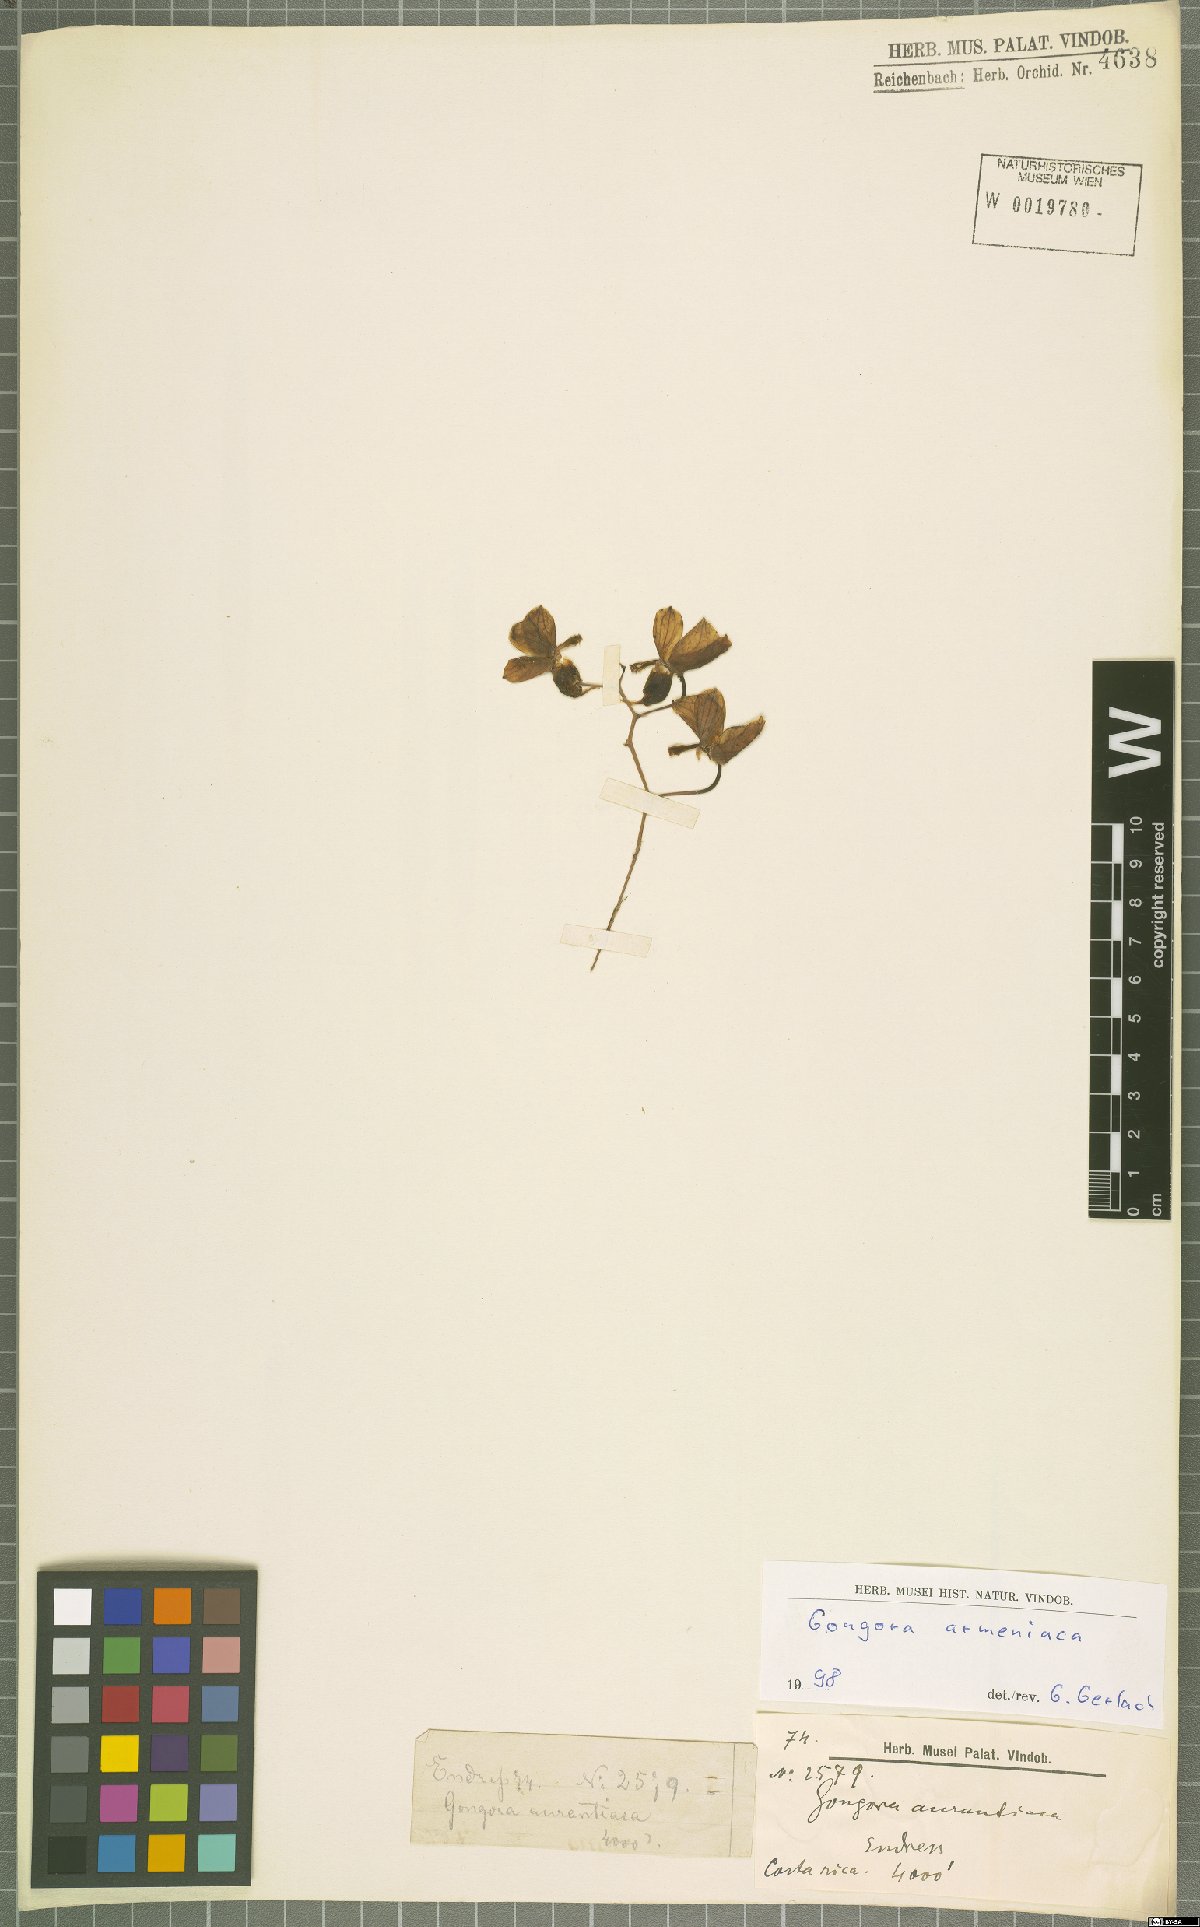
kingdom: Plantae
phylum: Tracheophyta
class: Liliopsida
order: Asparagales
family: Orchidaceae
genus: Gongora
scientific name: Gongora armeniaca
